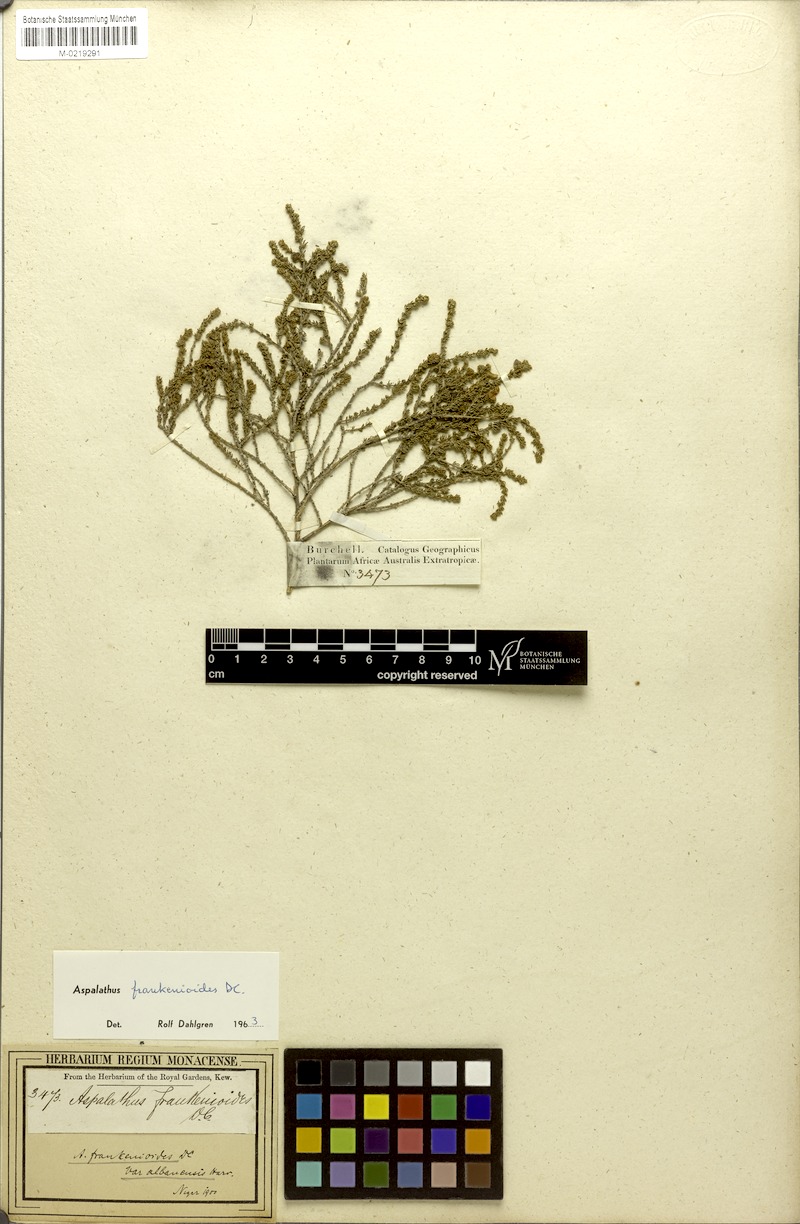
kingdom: Plantae
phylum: Tracheophyta
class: Magnoliopsida
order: Fabales
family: Fabaceae
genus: Aspalathus
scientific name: Aspalathus frankenioides
